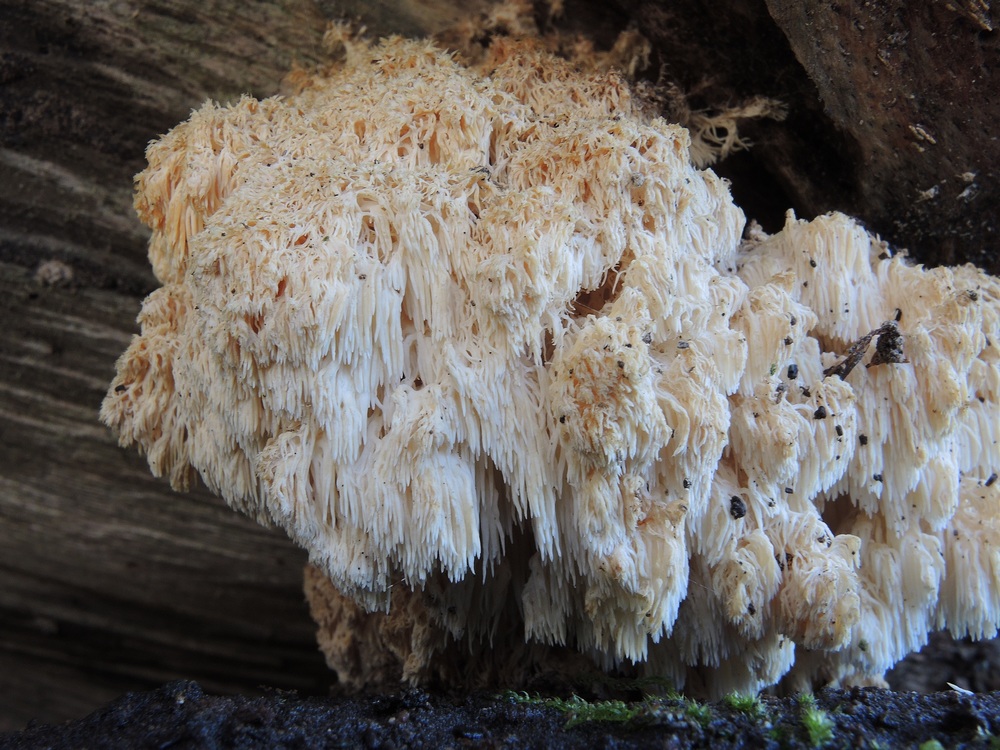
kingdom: Fungi
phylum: Basidiomycota
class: Agaricomycetes
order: Russulales
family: Hericiaceae
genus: Hericium
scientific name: Hericium coralloides
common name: koralpigsvamp
